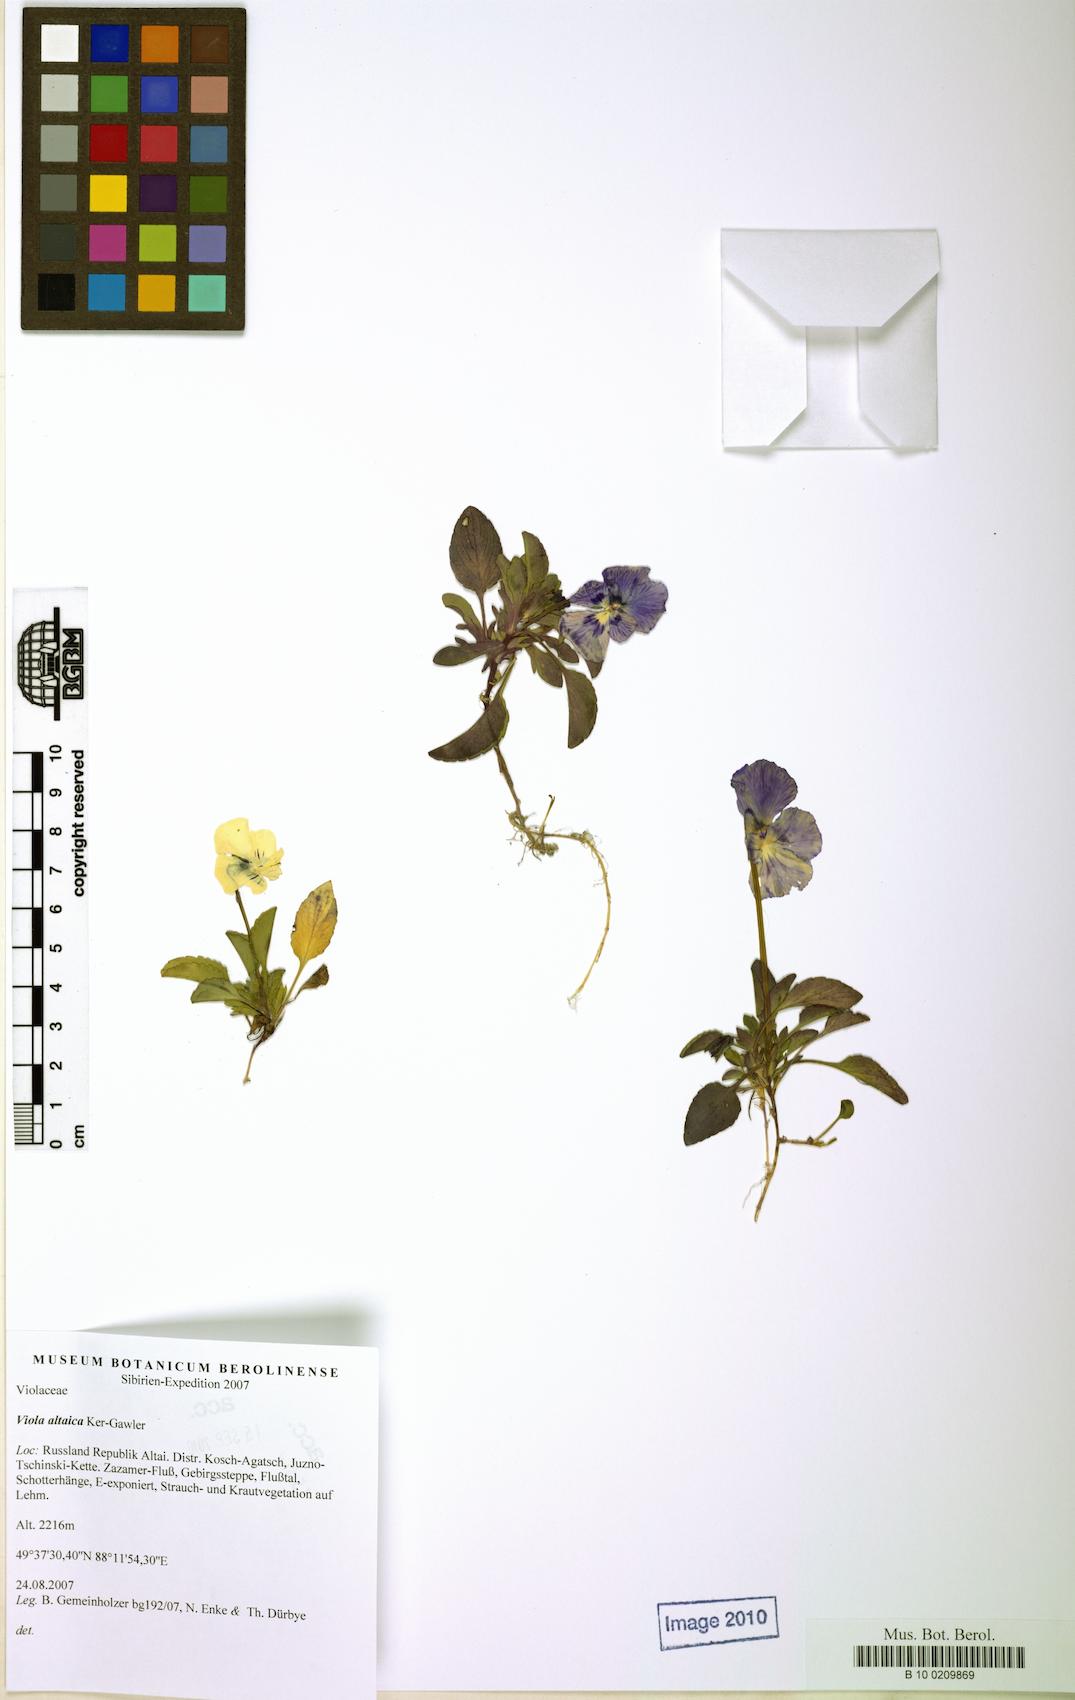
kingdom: Plantae
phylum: Tracheophyta
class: Magnoliopsida
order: Malpighiales
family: Violaceae
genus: Viola
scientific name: Viola altaica
